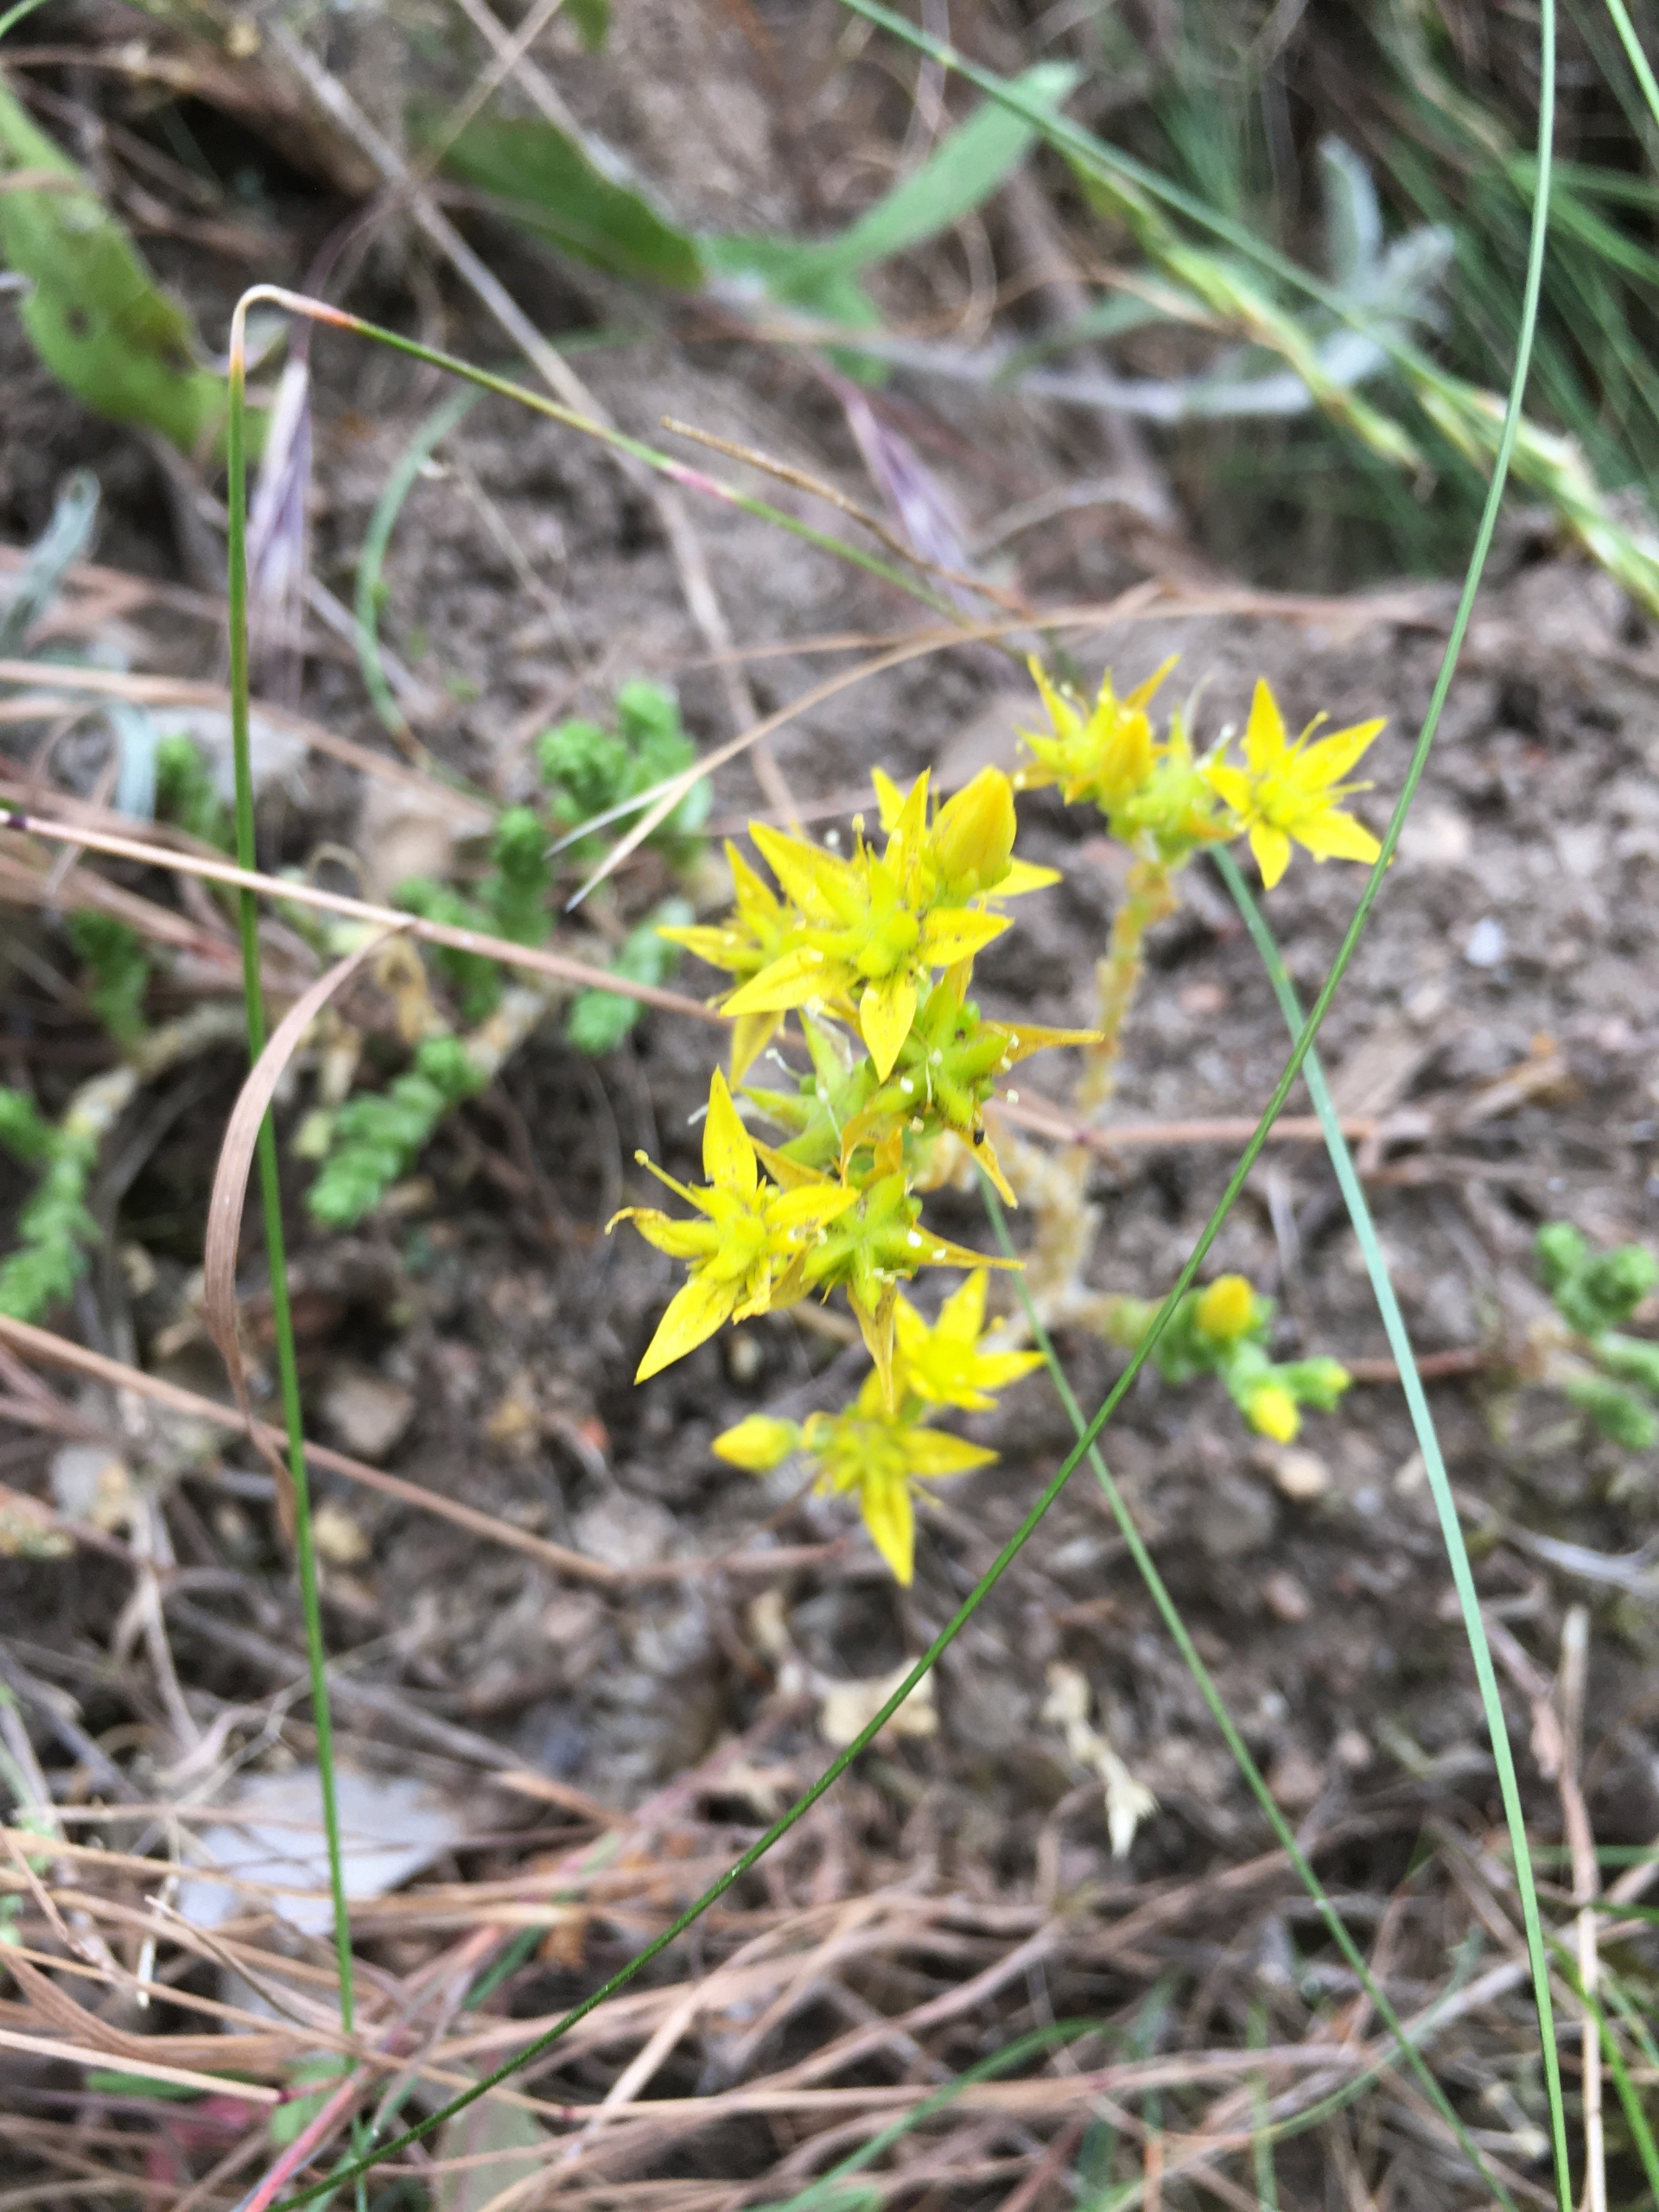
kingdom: Plantae
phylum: Tracheophyta
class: Magnoliopsida
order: Saxifragales
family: Crassulaceae
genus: Sedum
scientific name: Sedum acre
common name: Bidende stenurt
